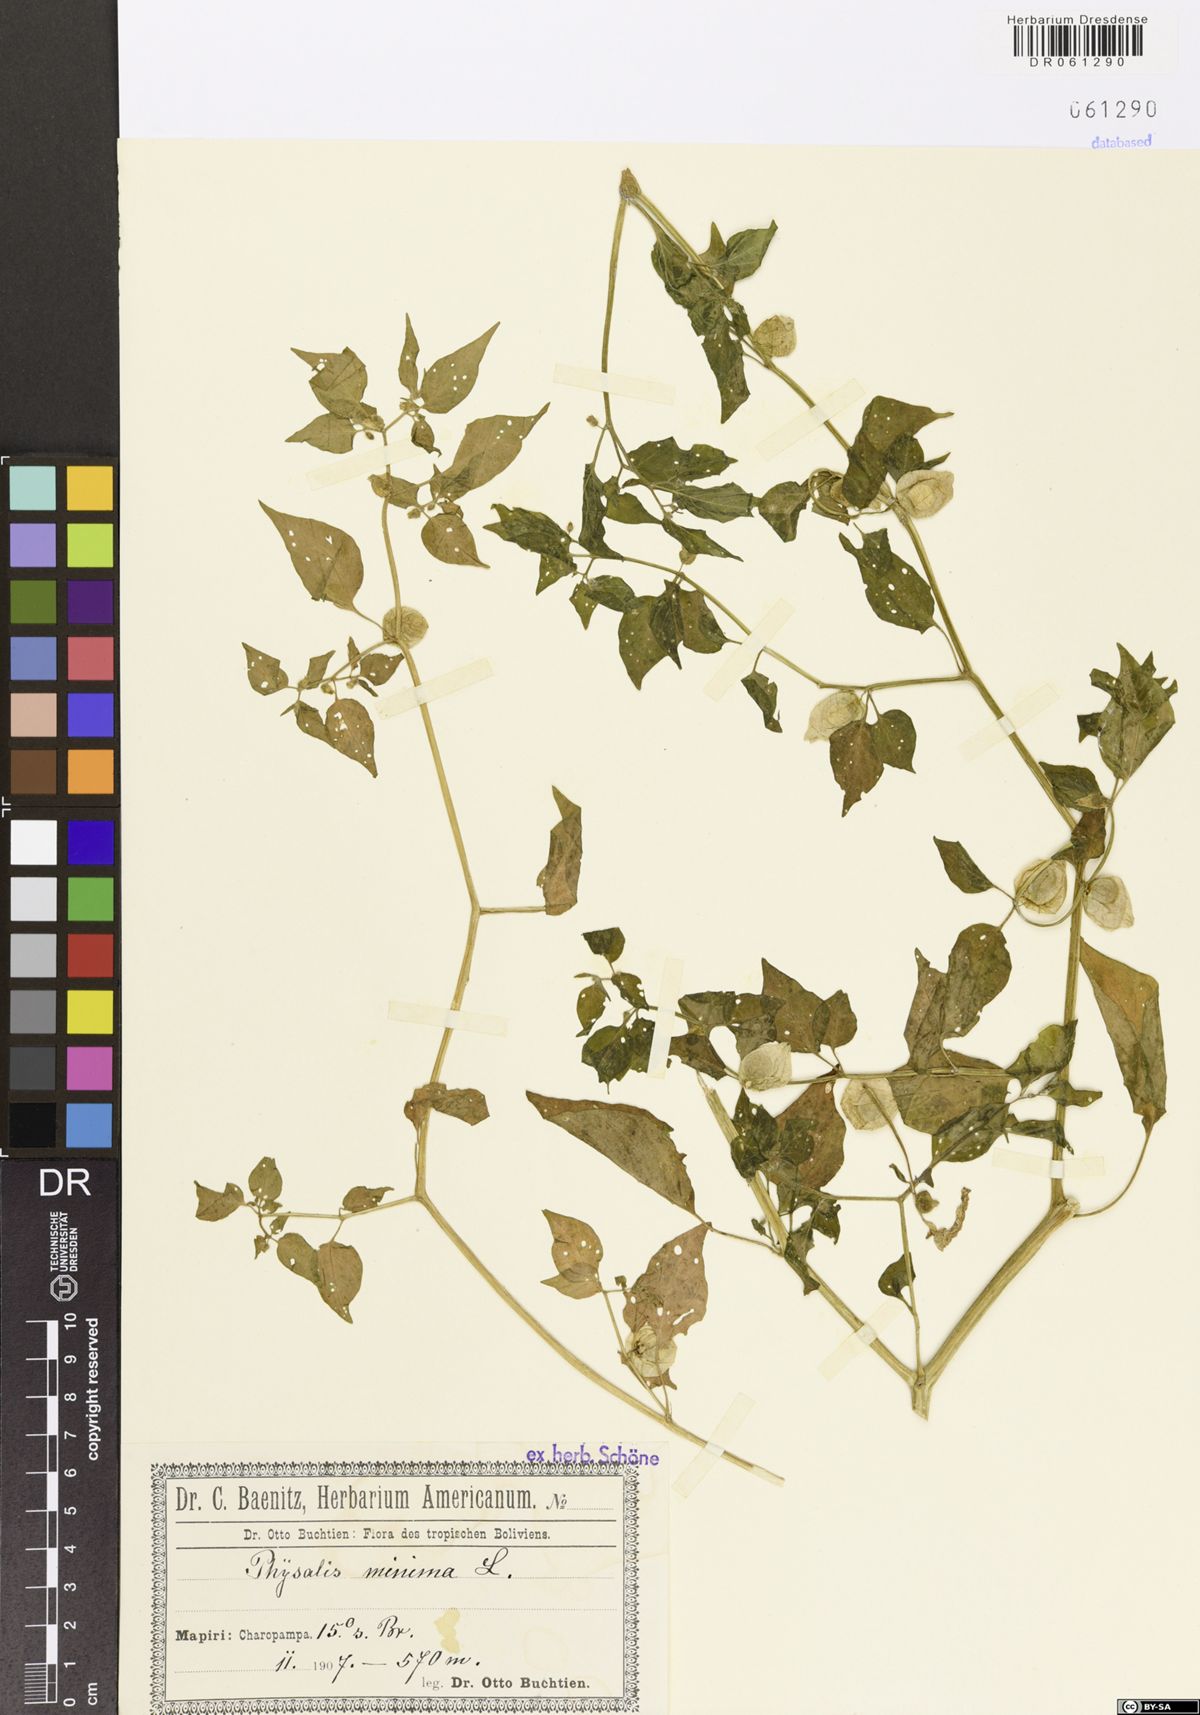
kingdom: Plantae
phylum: Tracheophyta
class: Magnoliopsida
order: Solanales
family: Solanaceae
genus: Physalis
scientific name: Physalis angulata
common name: Angular winter-cherry
